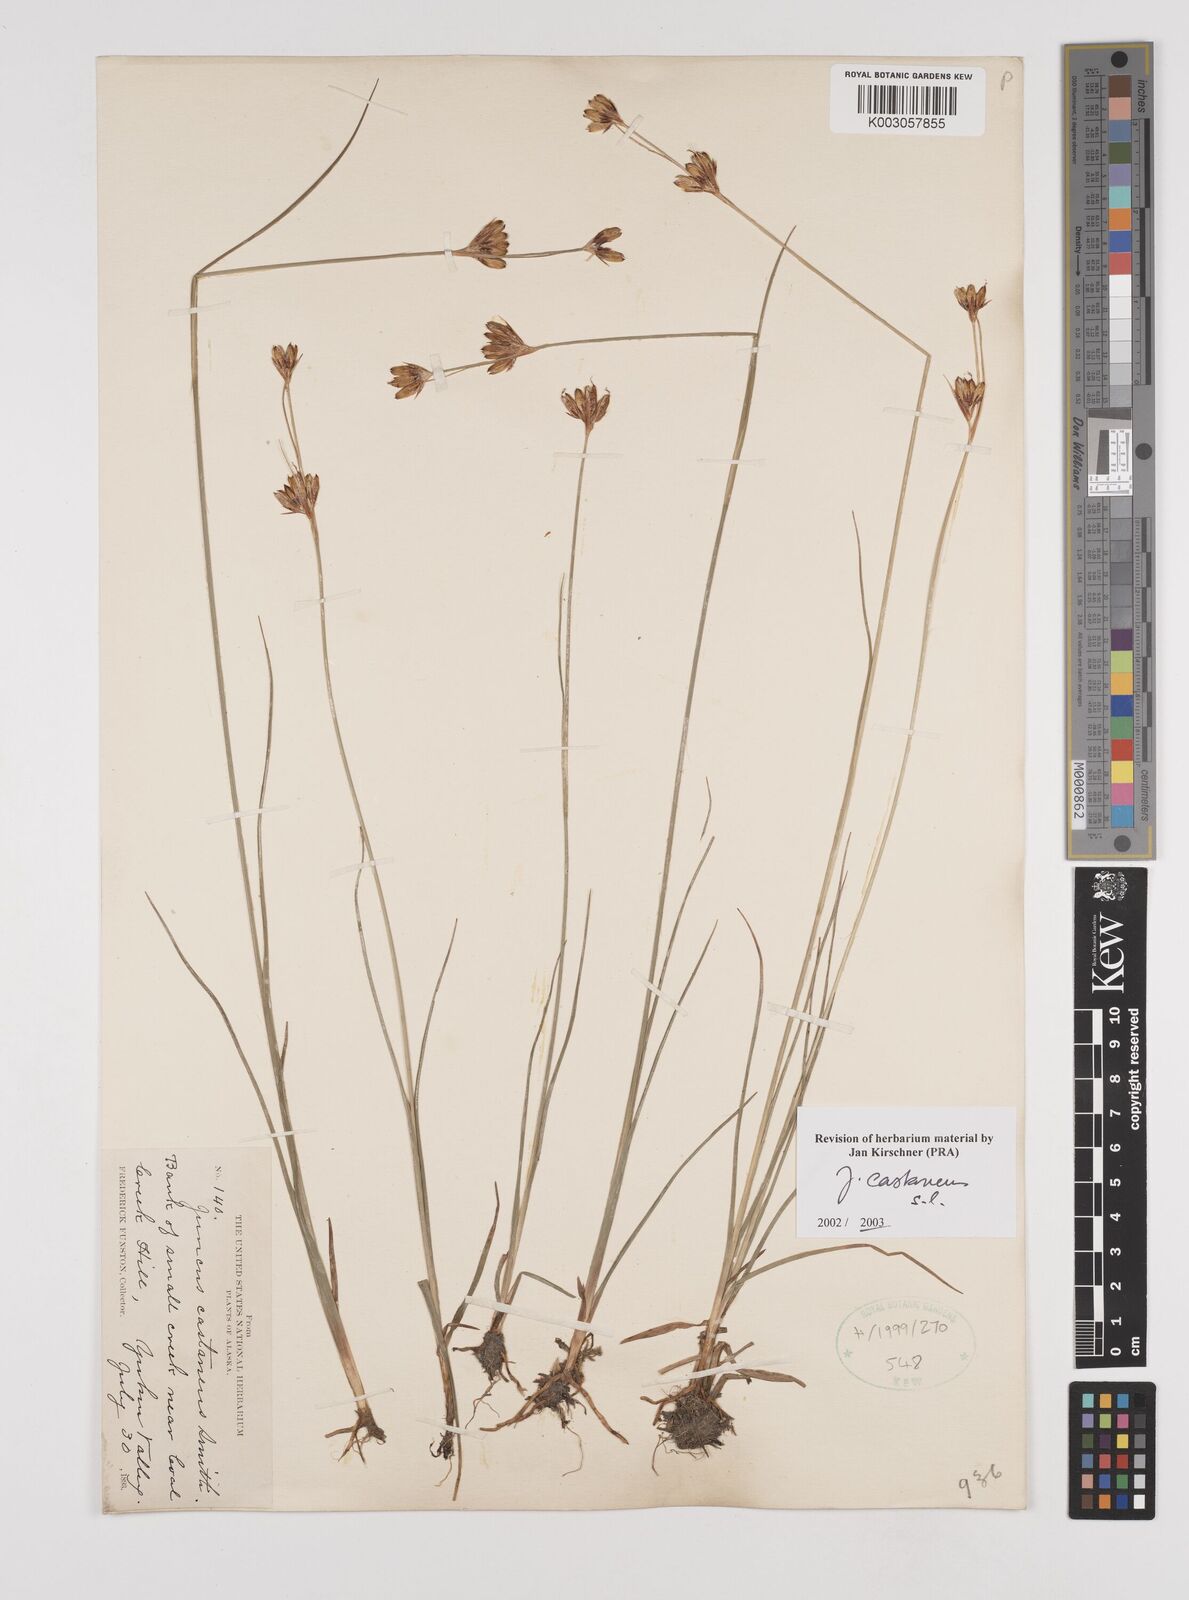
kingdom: Plantae
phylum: Tracheophyta
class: Liliopsida
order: Poales
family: Juncaceae
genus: Juncus
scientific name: Juncus castaneus
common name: Chestnut rush
